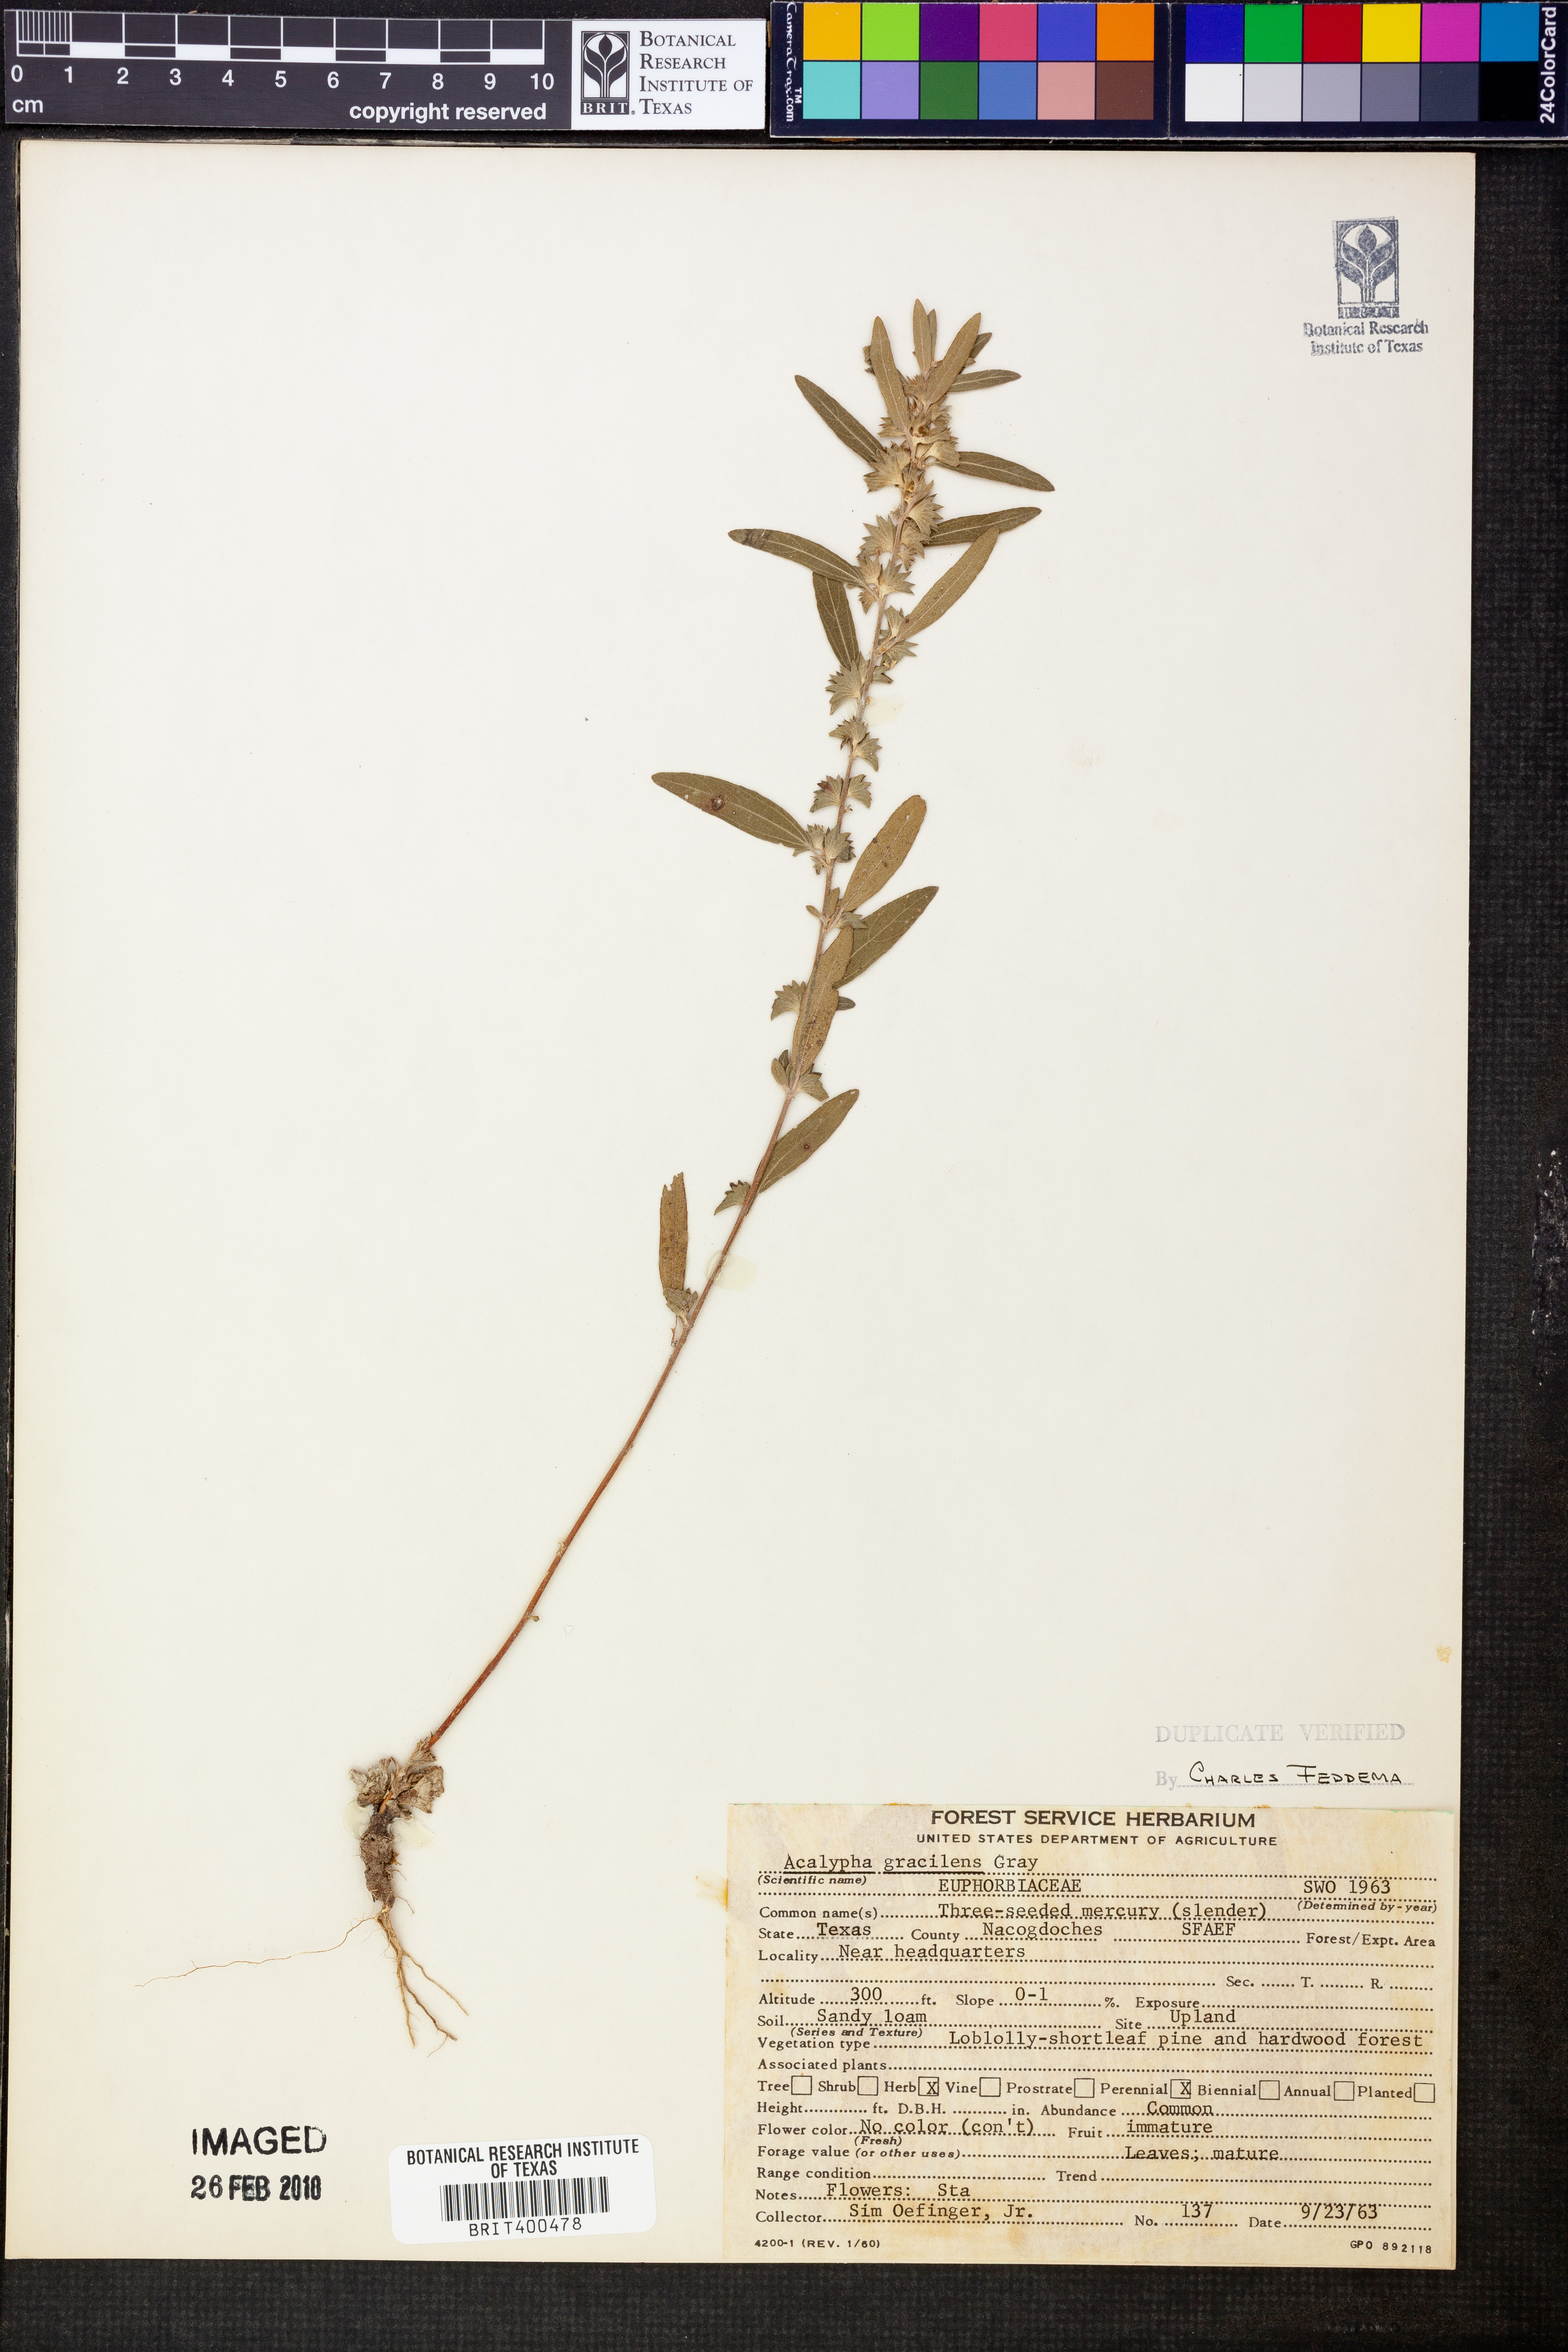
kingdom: Plantae
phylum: Tracheophyta
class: Magnoliopsida
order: Malpighiales
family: Euphorbiaceae
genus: Acalypha
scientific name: Acalypha gracilens
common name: Slender three-seeded mercury
